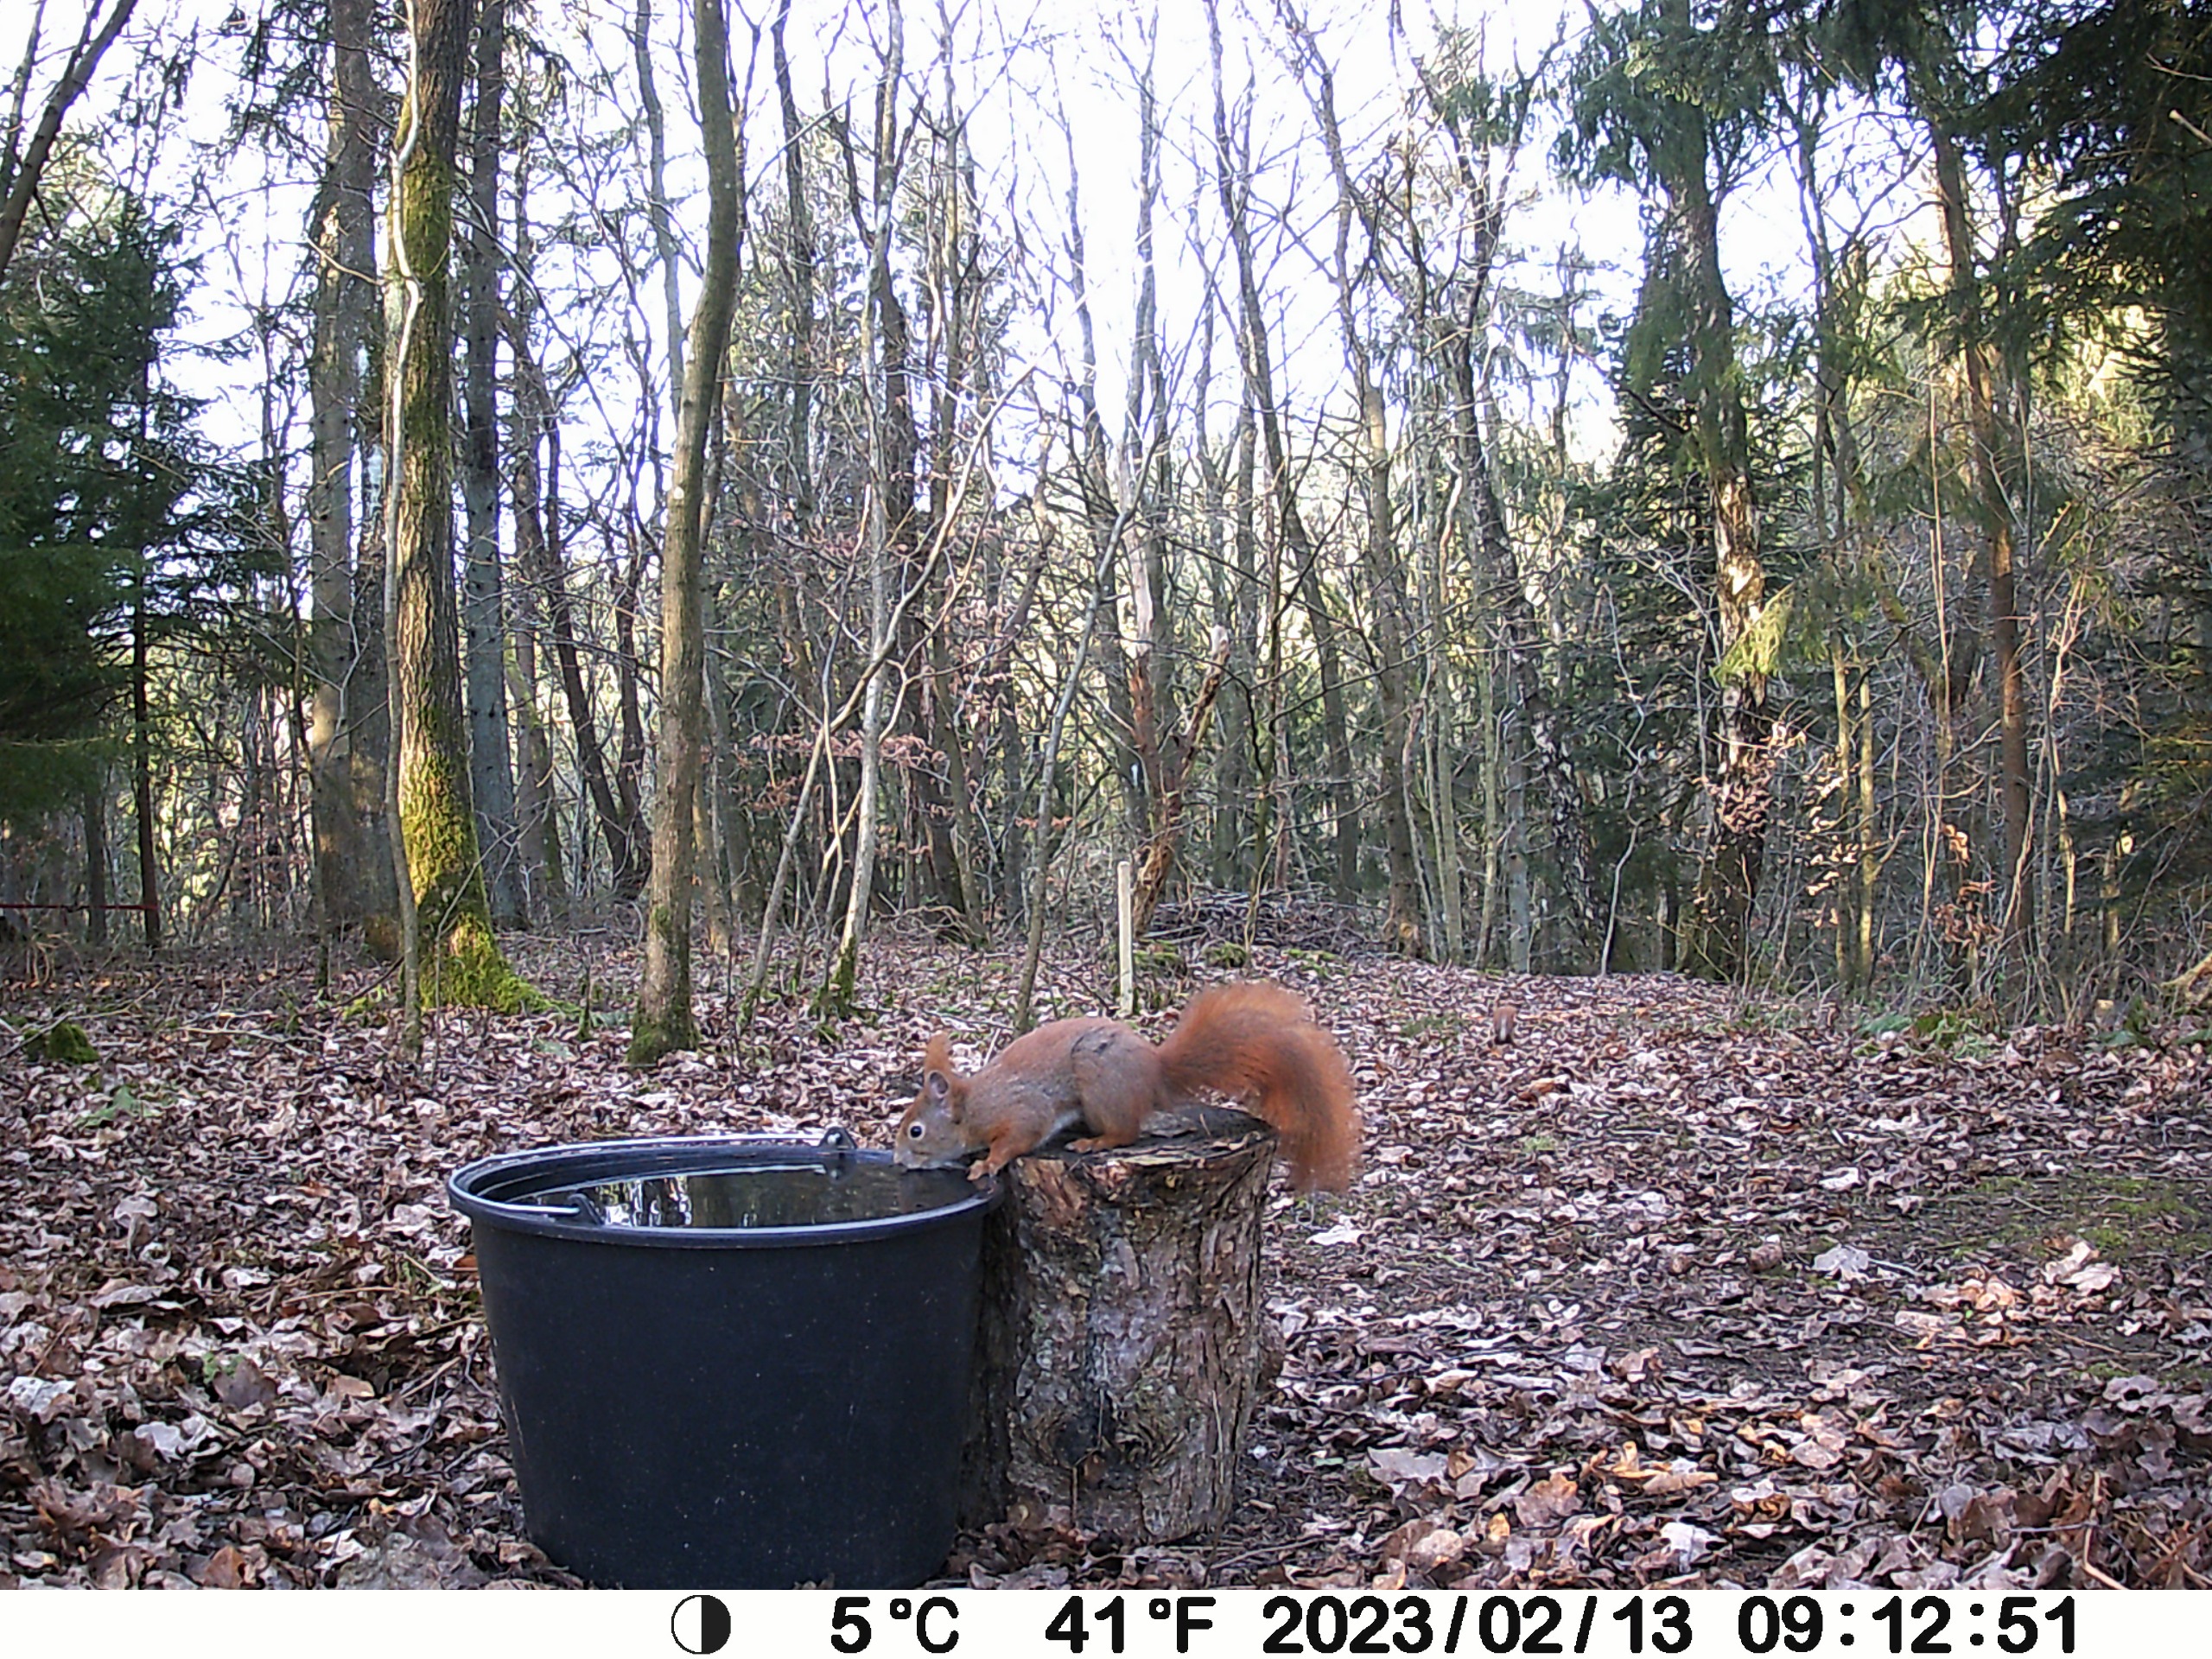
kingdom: Animalia
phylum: Chordata
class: Mammalia
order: Rodentia
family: Sciuridae
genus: Sciurus
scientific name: Sciurus vulgaris
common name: Egern
